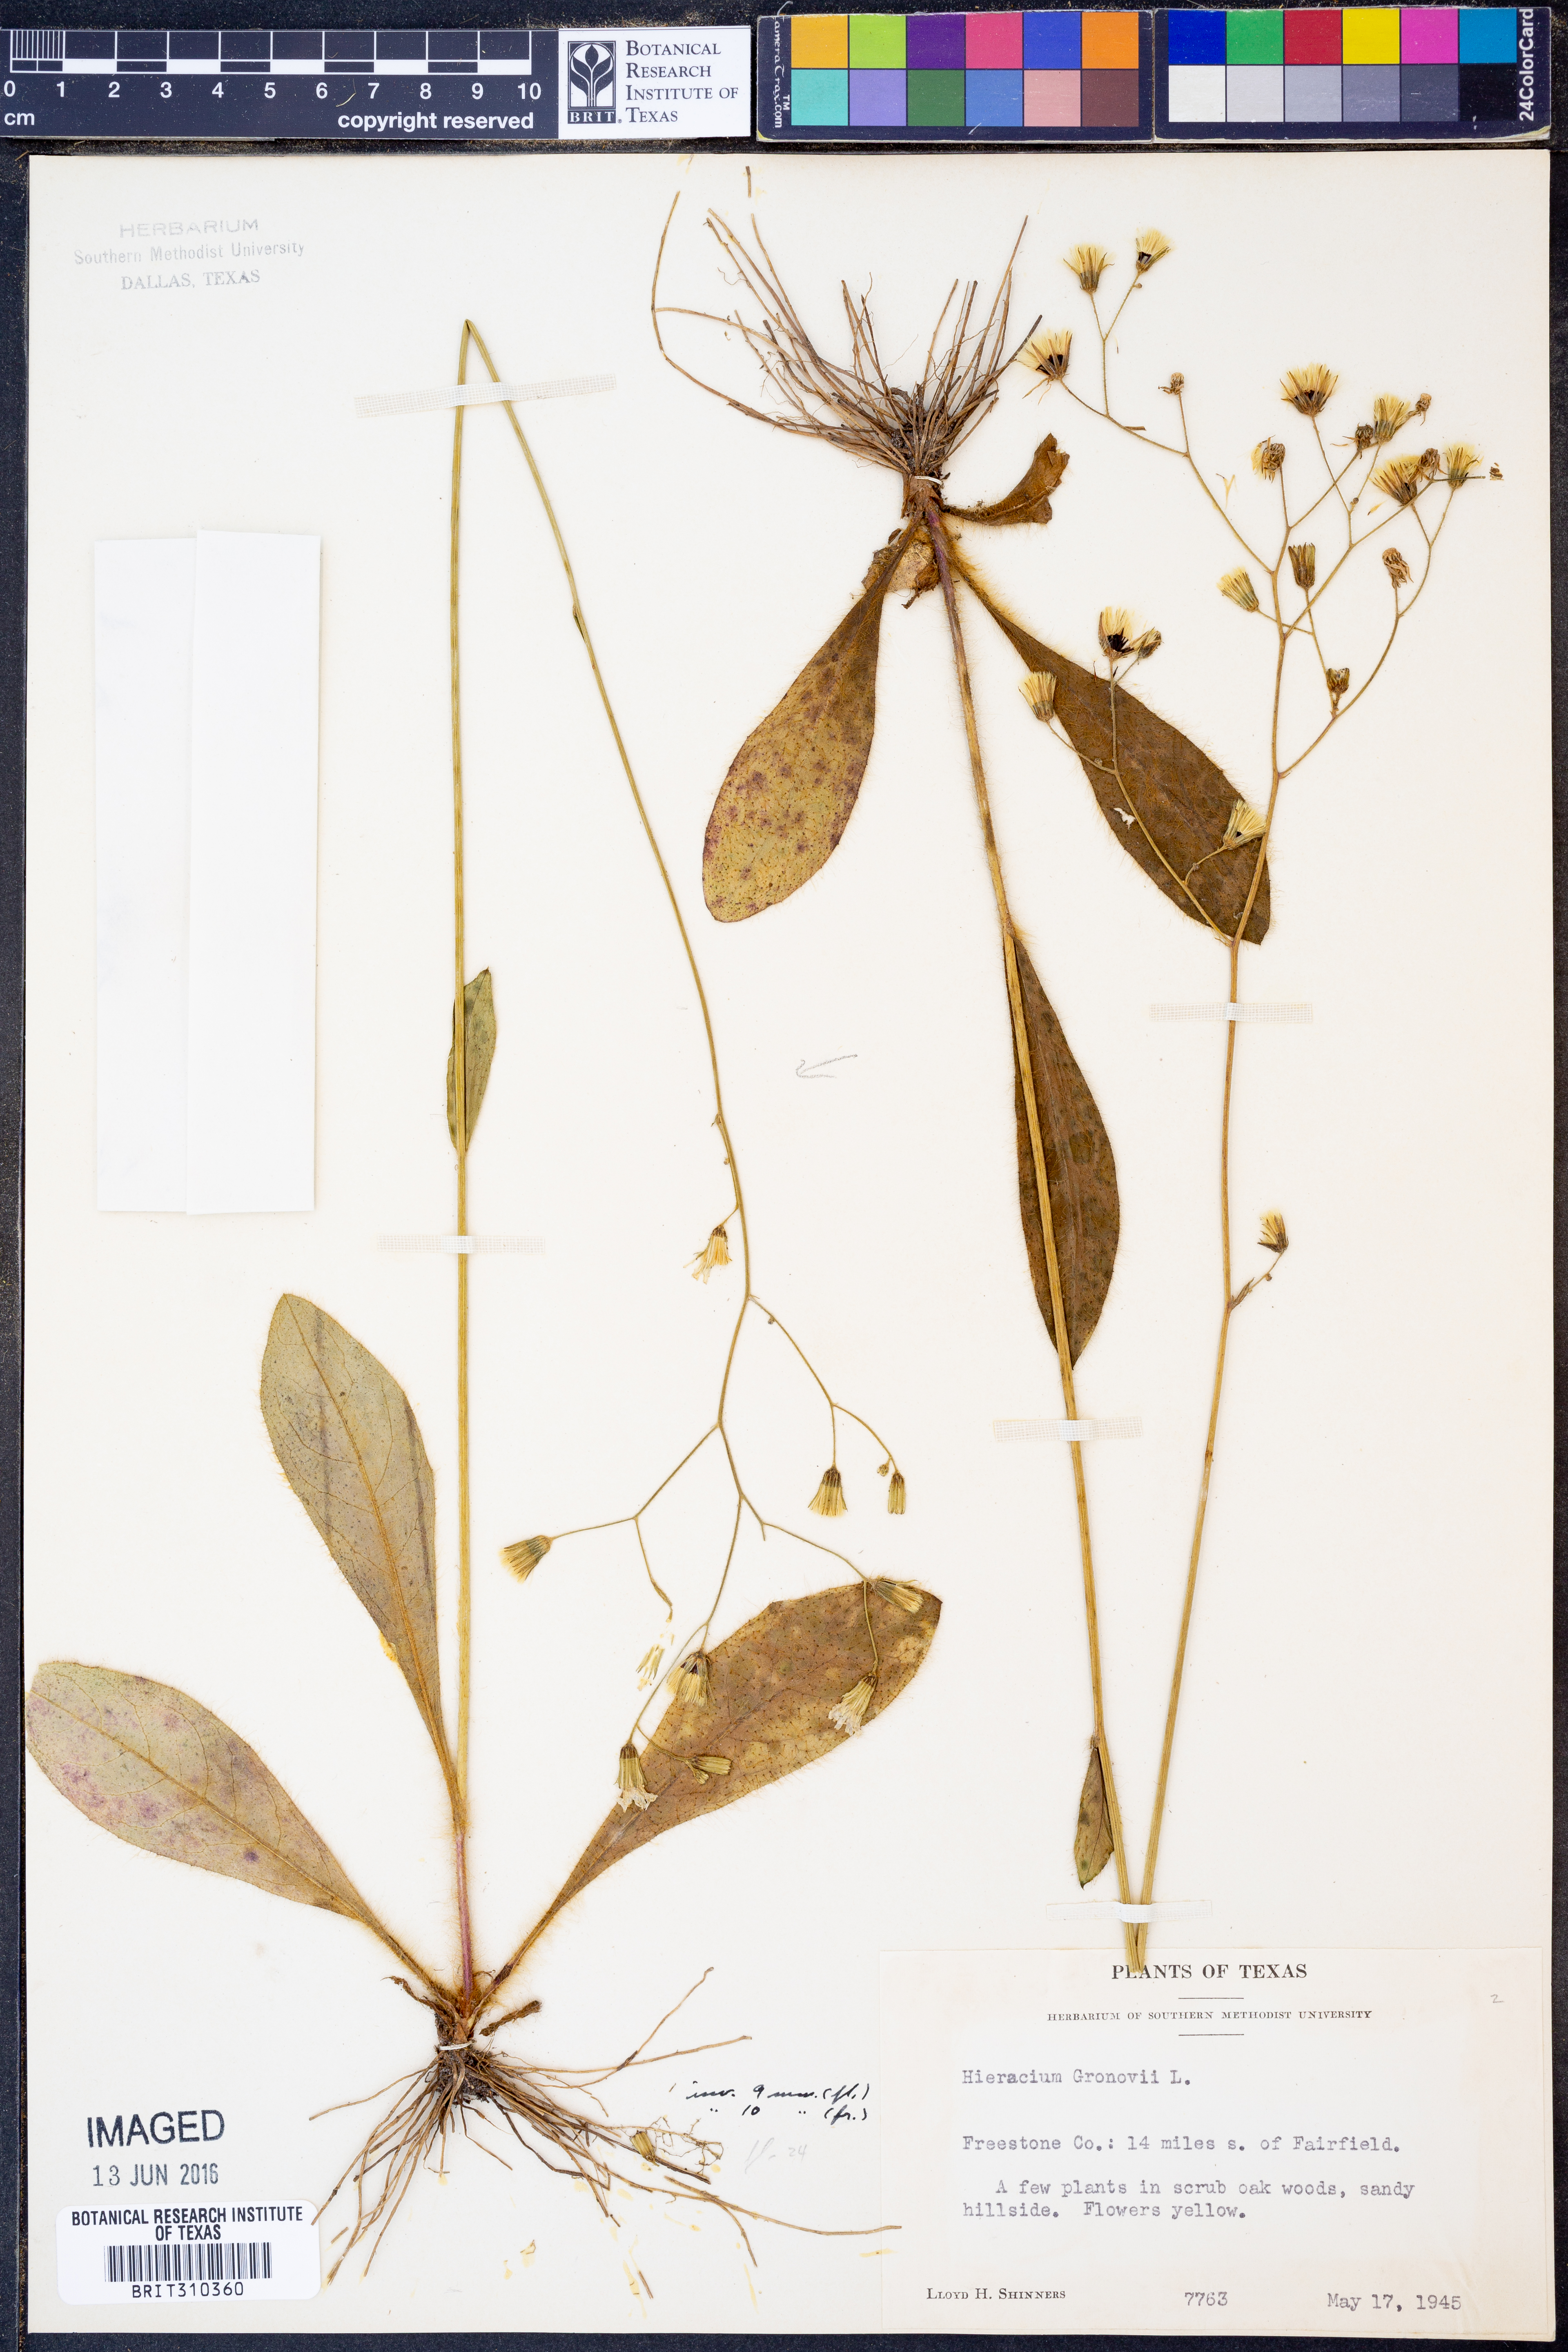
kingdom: Plantae
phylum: Tracheophyta
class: Magnoliopsida
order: Asterales
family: Asteraceae
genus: Hieracium
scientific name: Hieracium gronovii
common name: Beaked hawkweed
